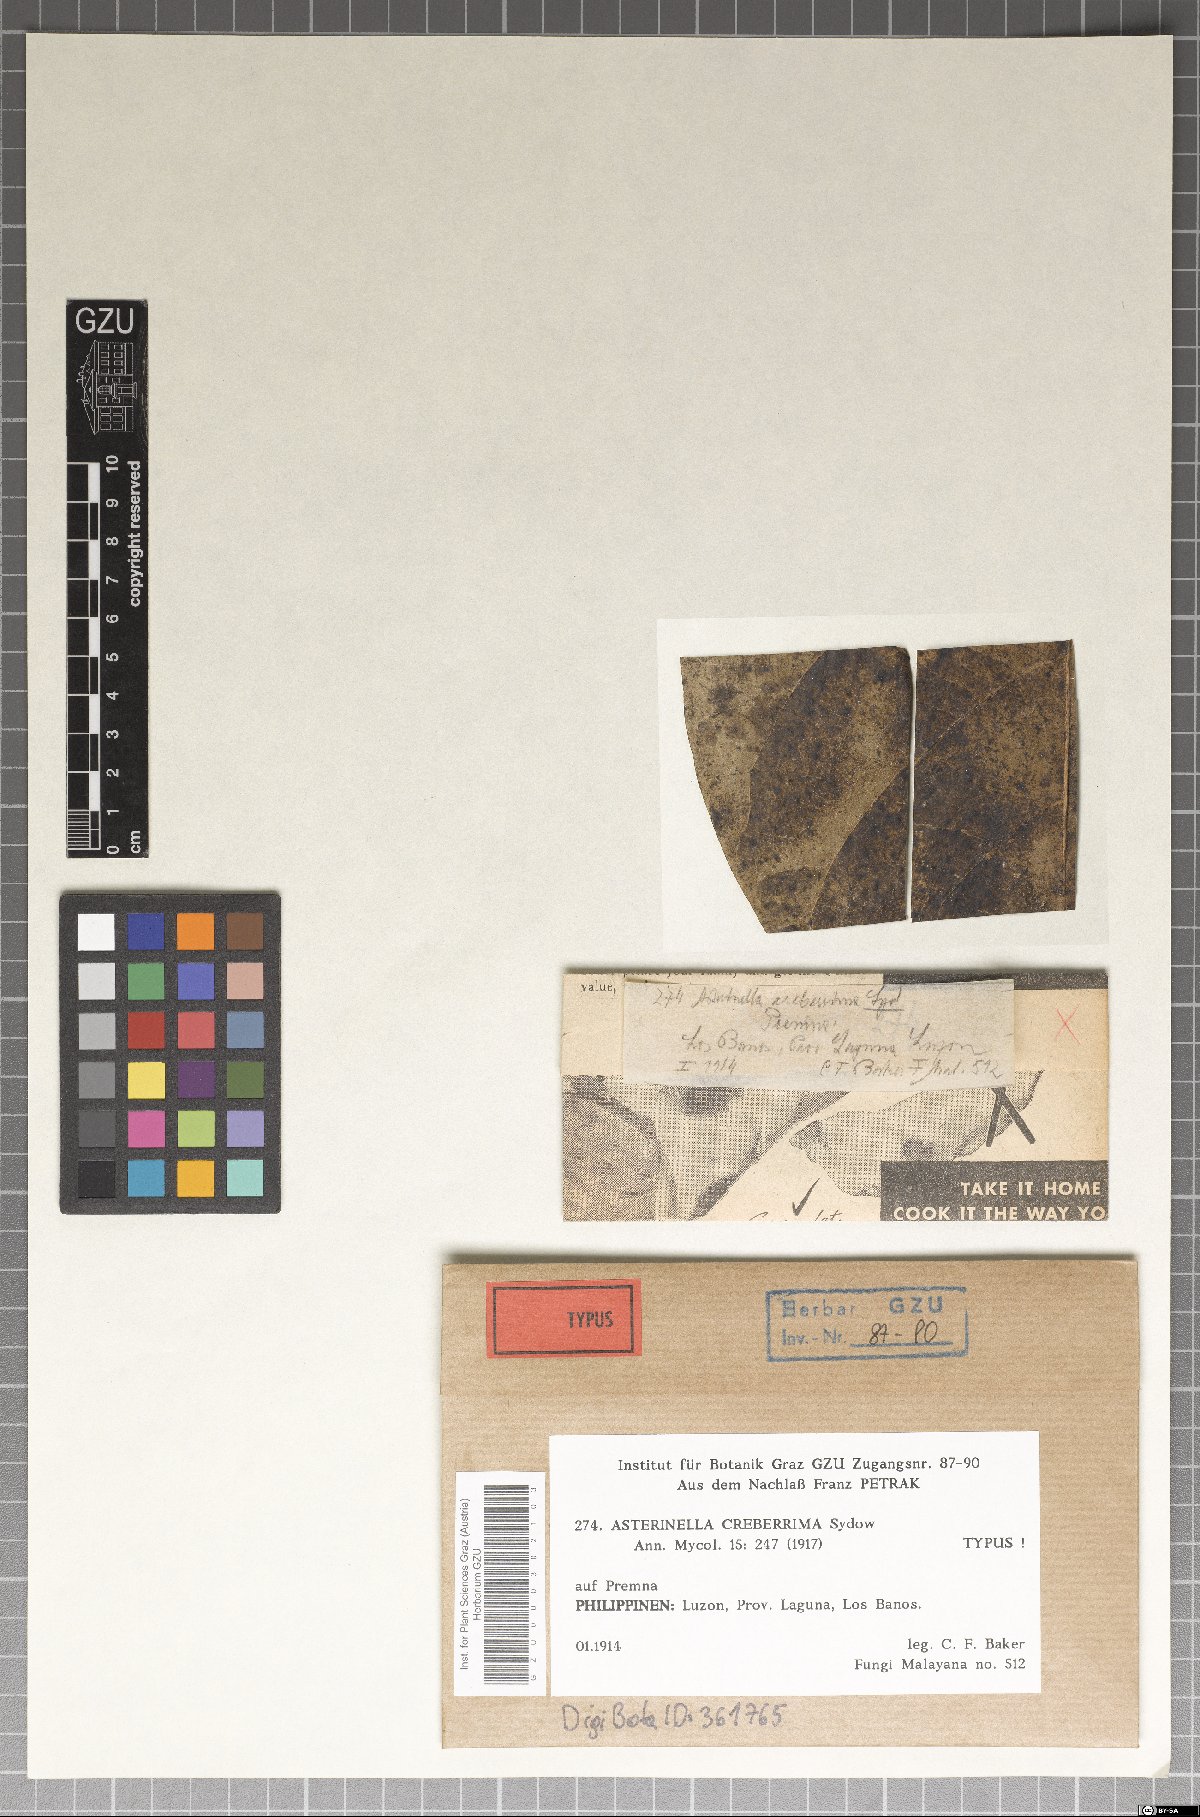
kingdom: Fungi
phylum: Ascomycota
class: Dothideomycetes
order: Asterinales
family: Asterinaceae
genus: Prillieuxina
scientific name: Prillieuxina creberrima
